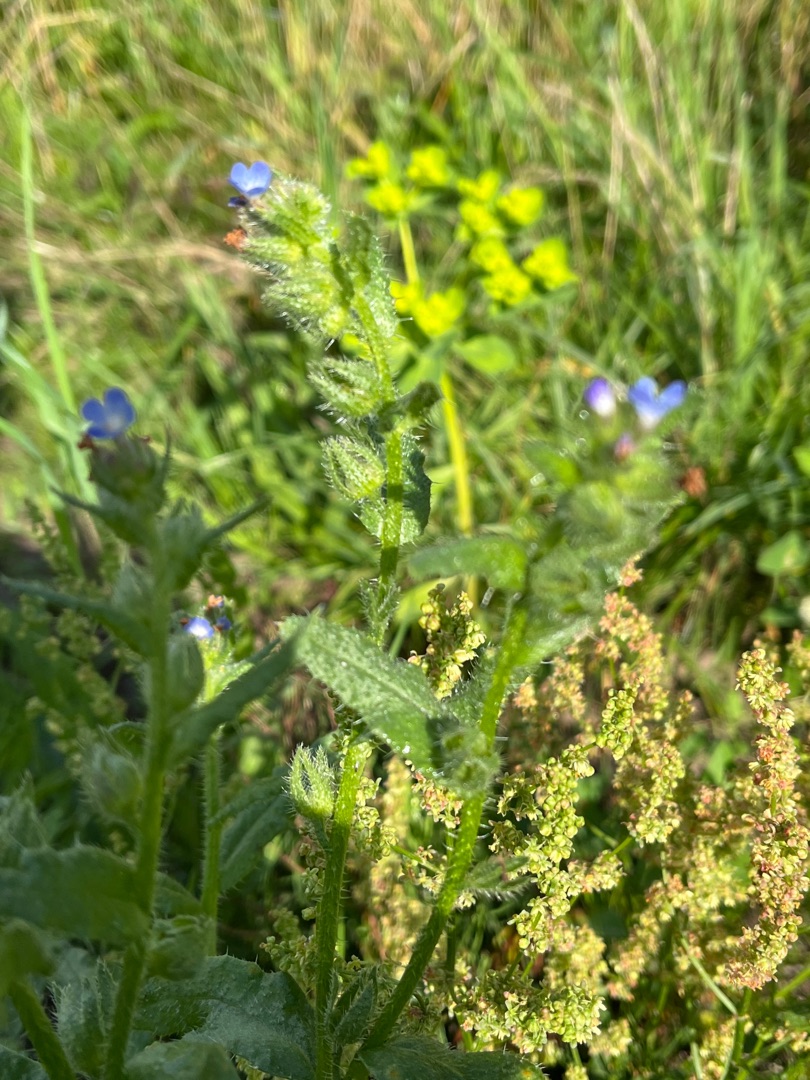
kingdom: Plantae
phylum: Tracheophyta
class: Magnoliopsida
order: Boraginales
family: Boraginaceae
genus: Lycopsis
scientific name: Lycopsis arvensis
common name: Krumhals
